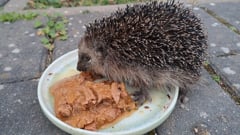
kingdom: Animalia
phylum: Chordata
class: Mammalia
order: Erinaceomorpha
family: Erinaceidae
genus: Erinaceus
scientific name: Erinaceus europaeus
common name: West european hedgehog
